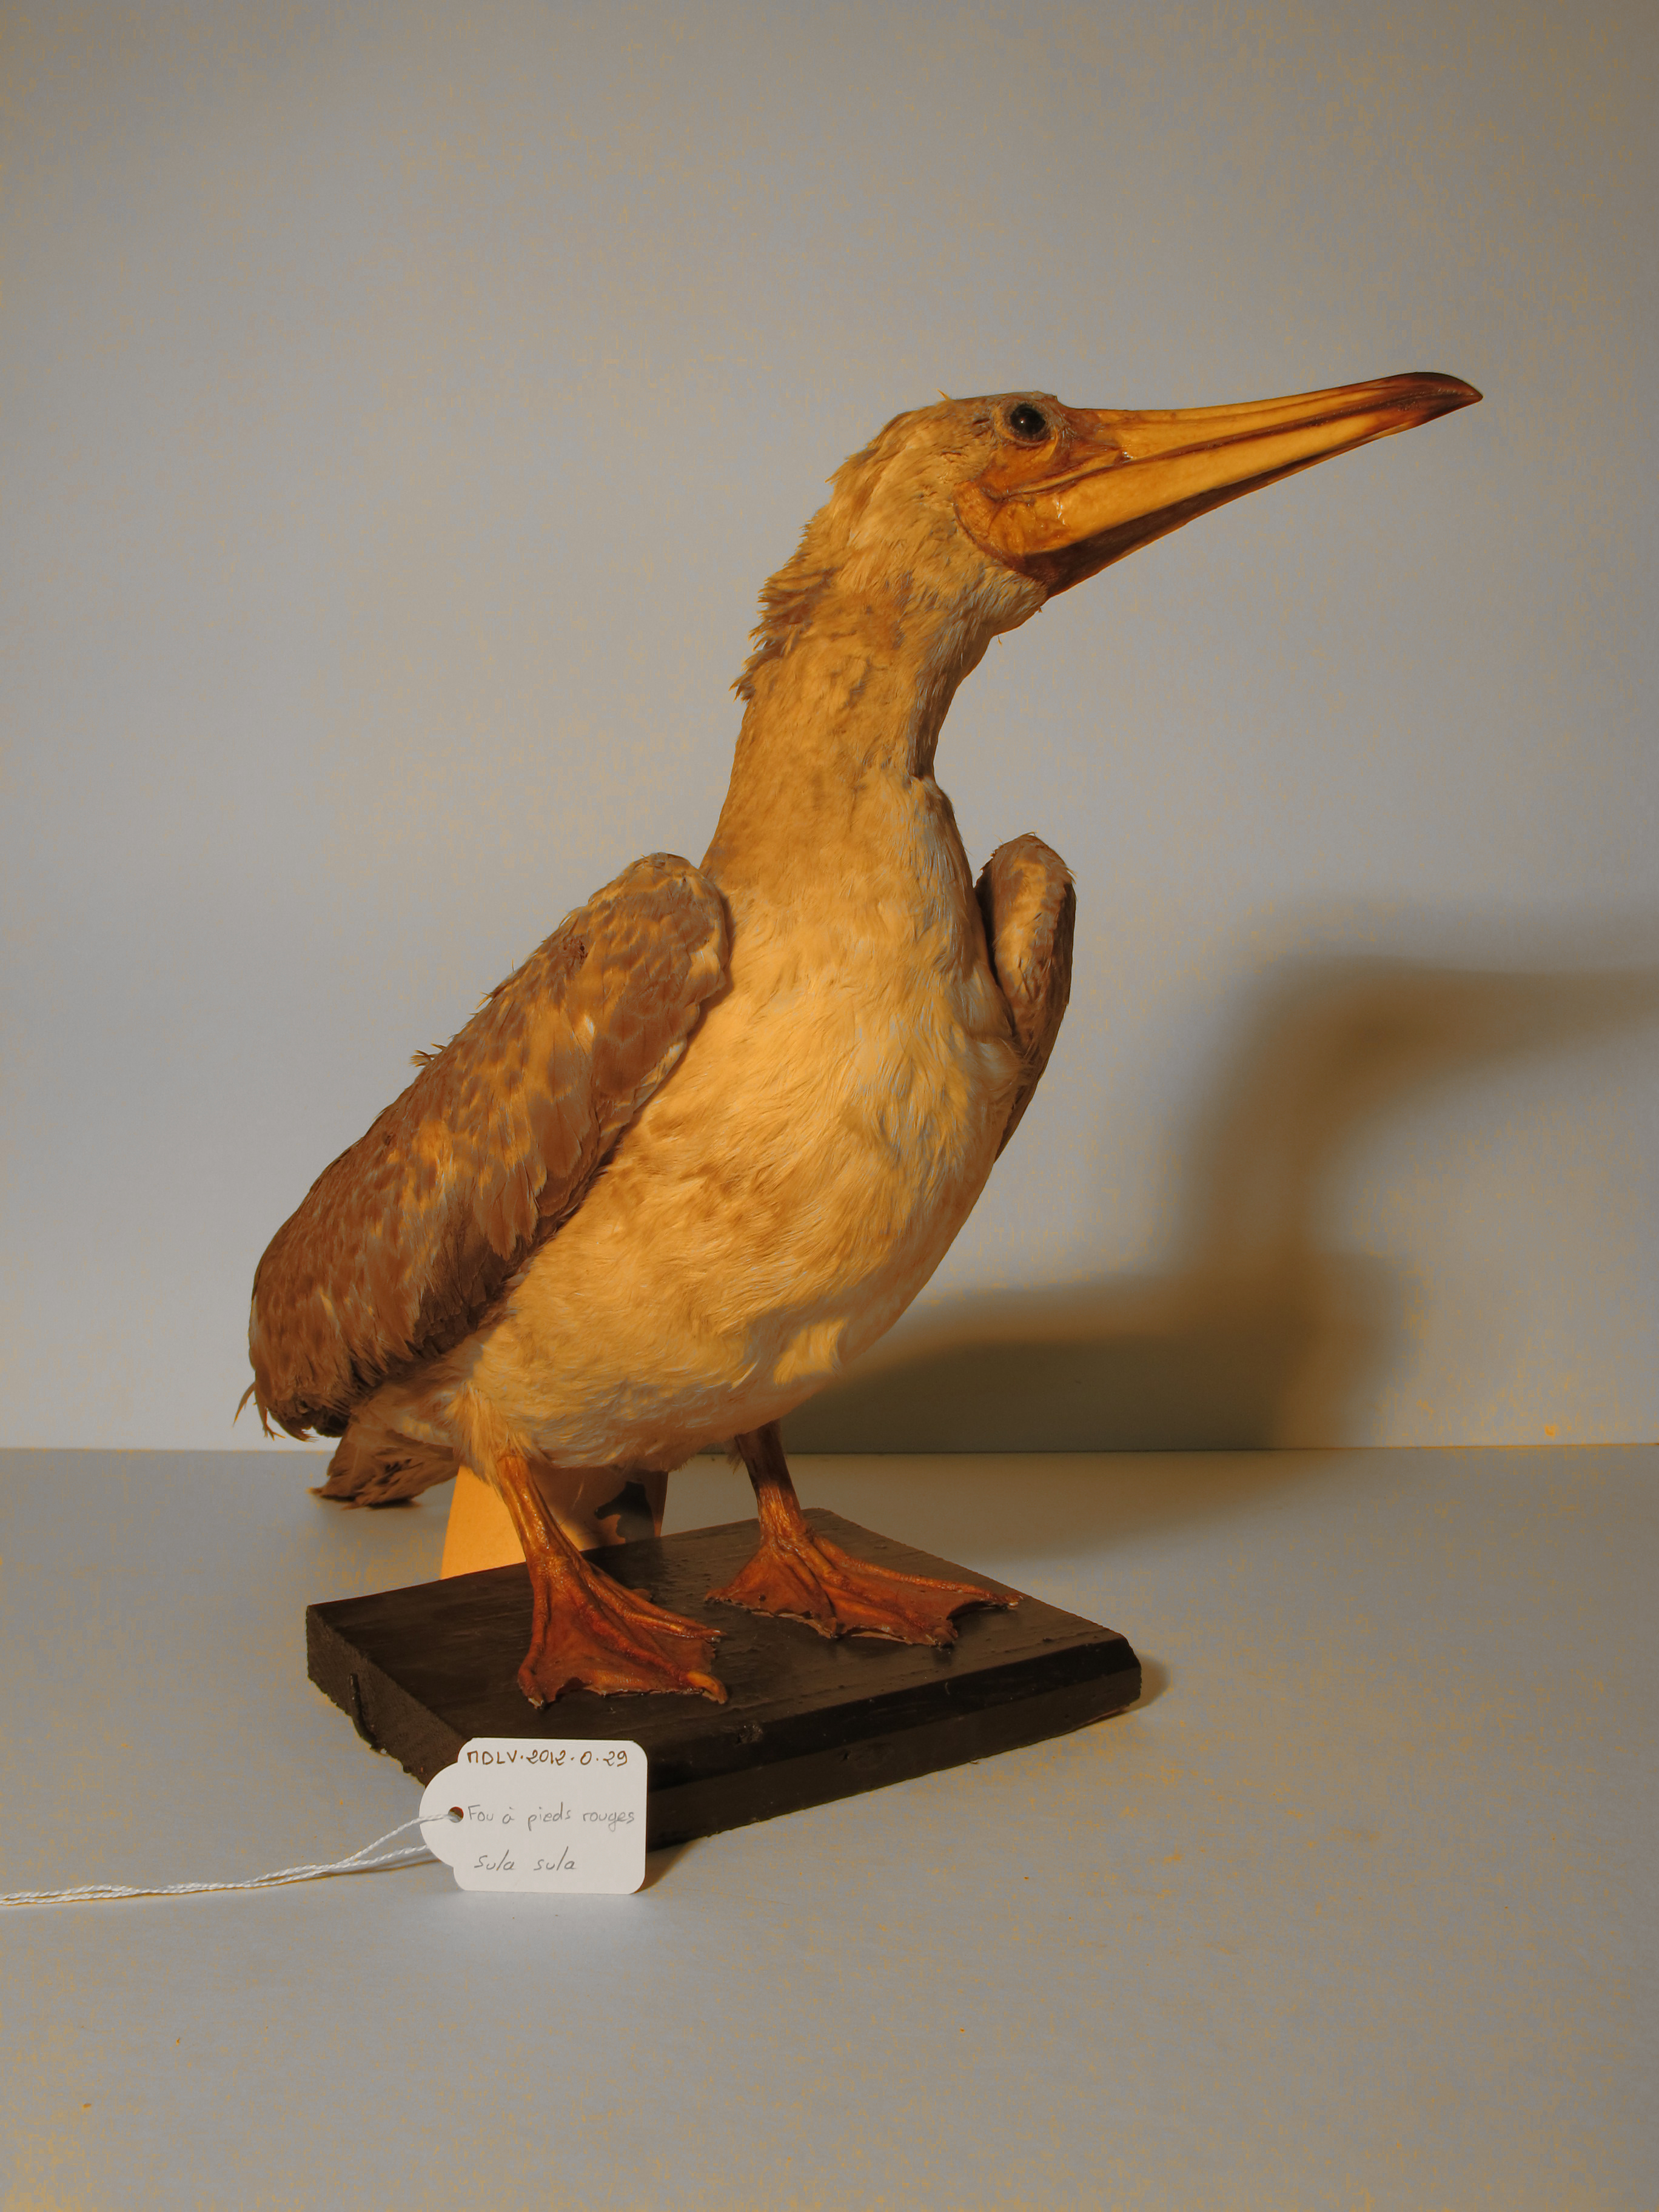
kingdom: Animalia
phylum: Chordata
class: Aves
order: Suliformes
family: Sulidae
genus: Sula
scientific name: Sula sula
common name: Red-footed Booby
